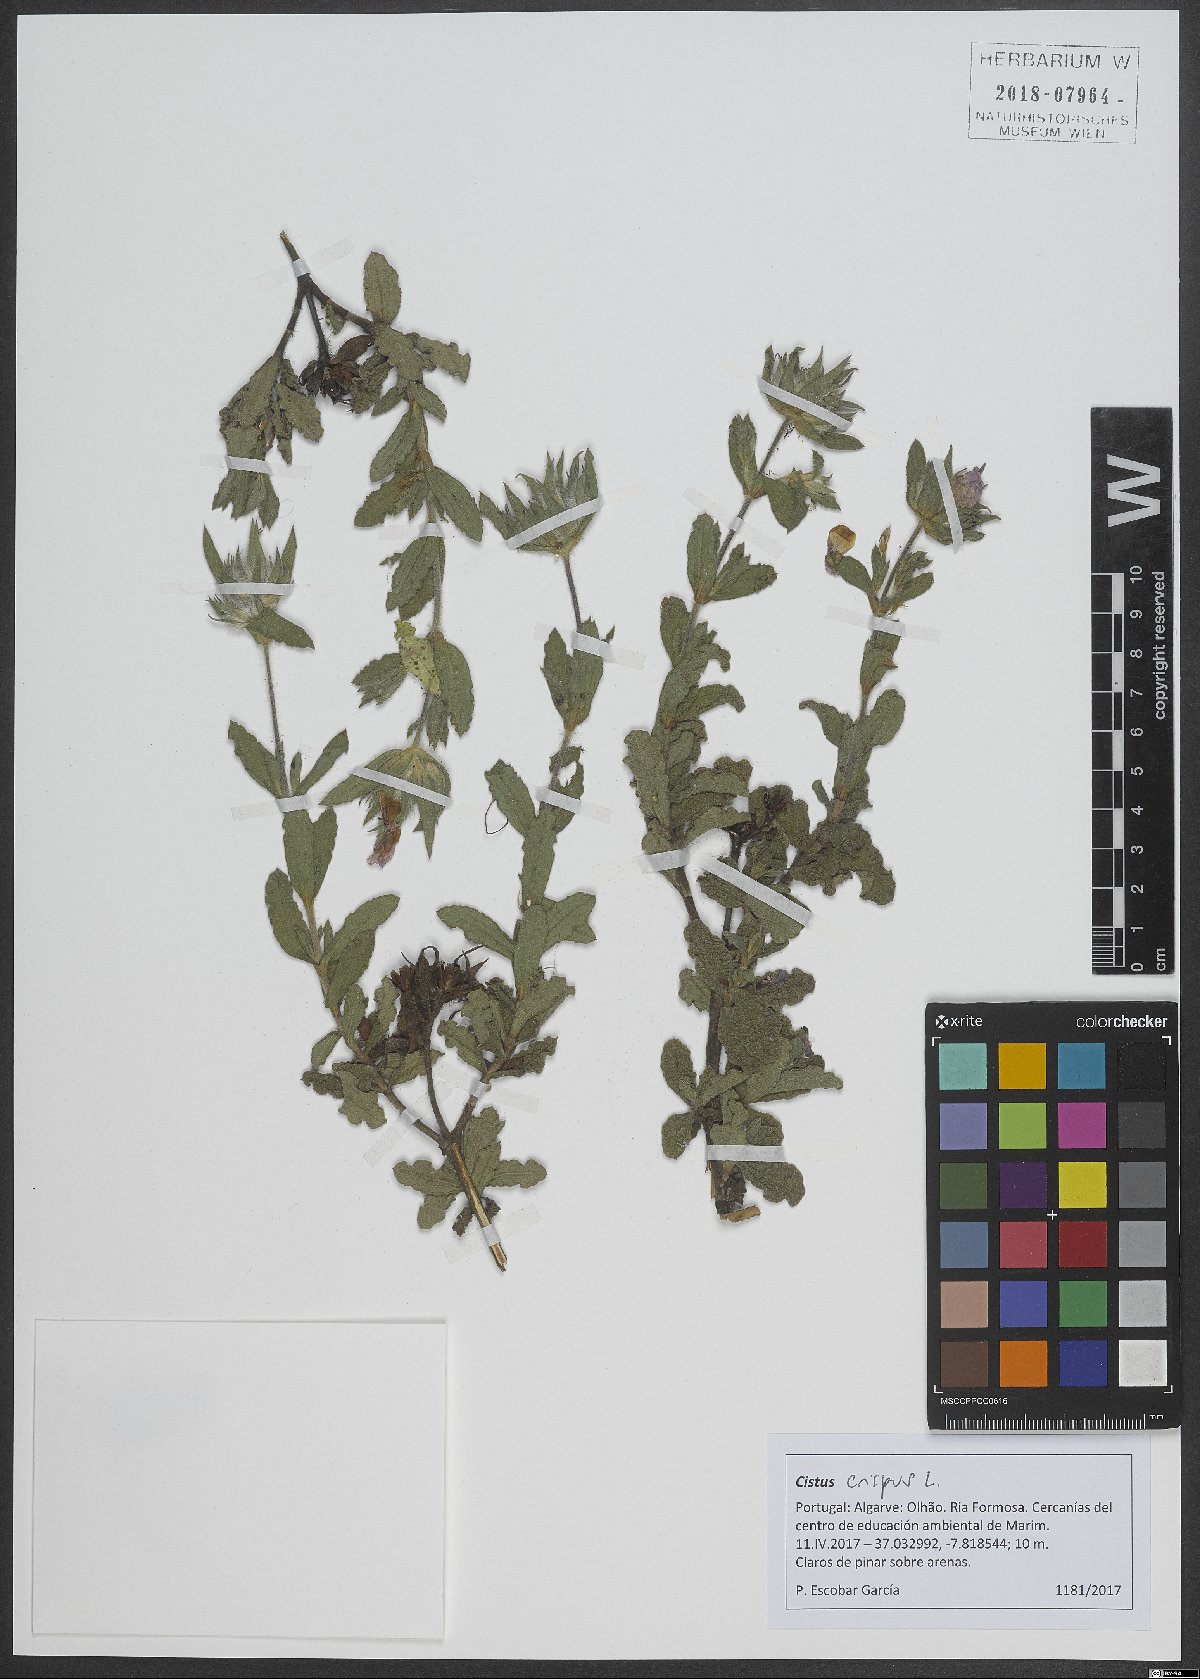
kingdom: Plantae
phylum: Tracheophyta
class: Magnoliopsida
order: Malvales
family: Cistaceae
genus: Cistus
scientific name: Cistus crispus
